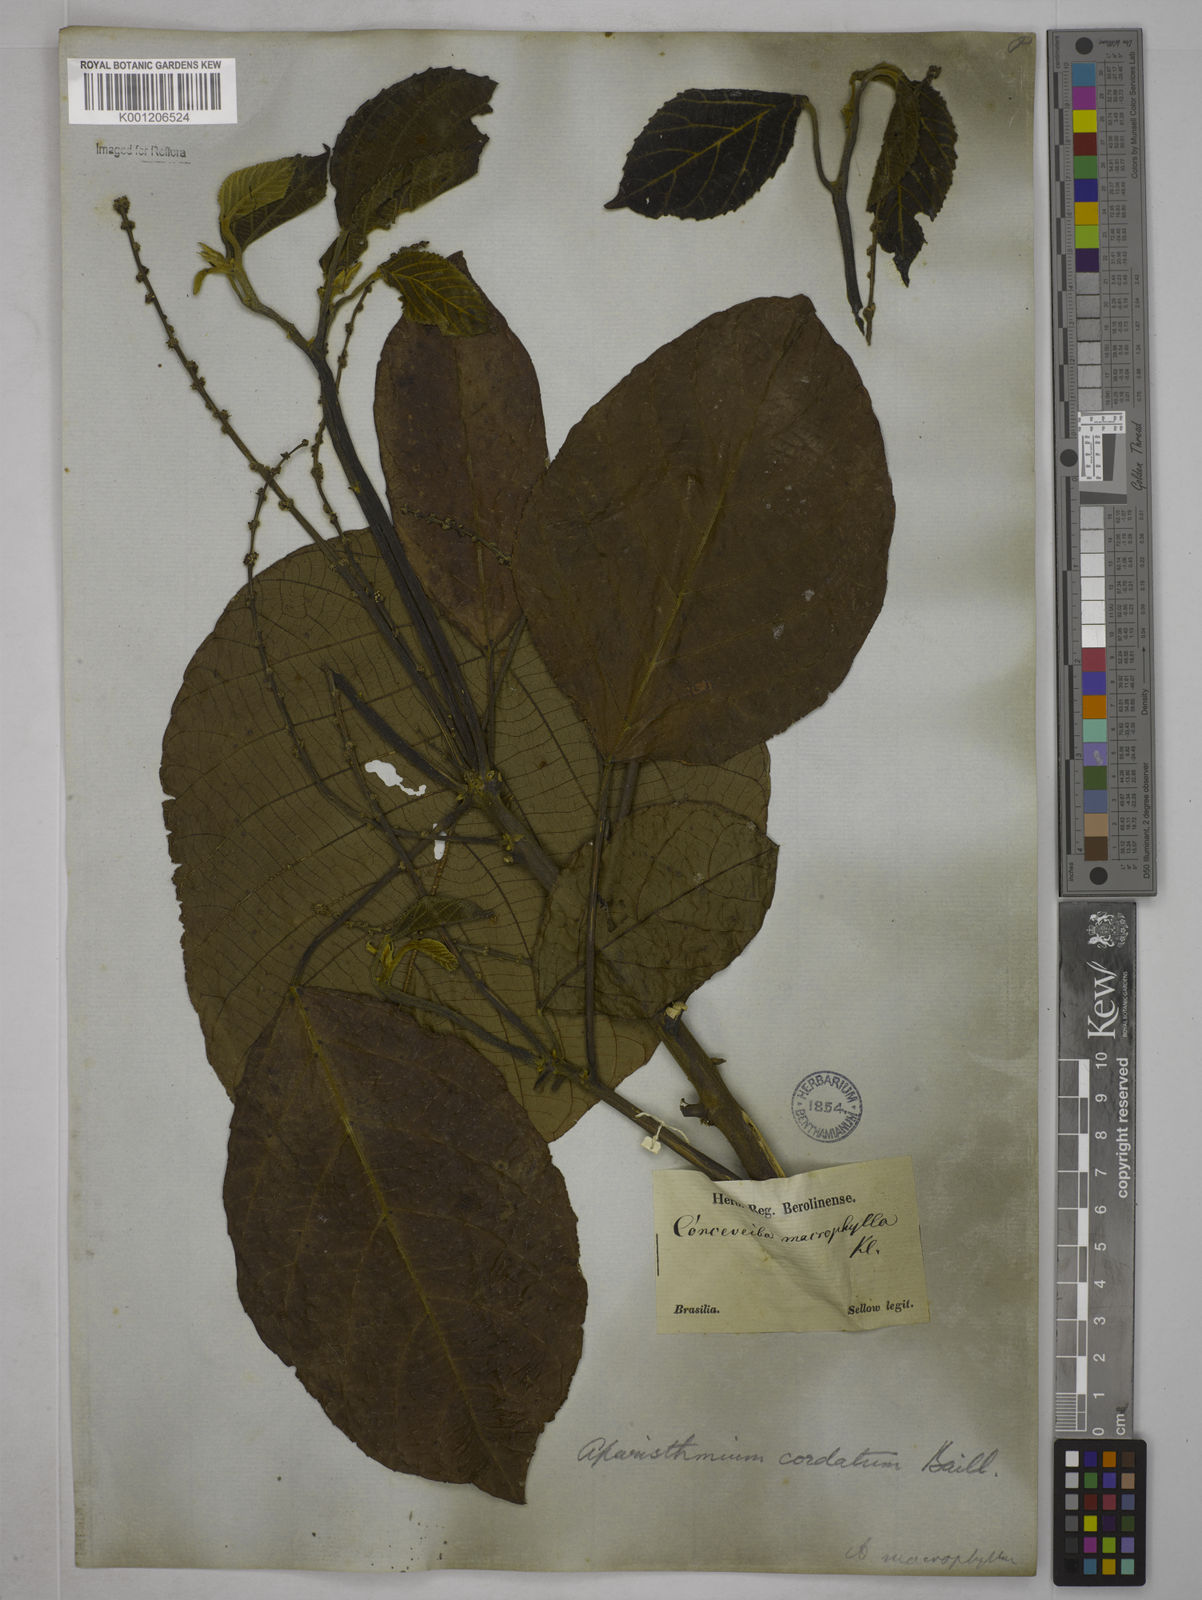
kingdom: Plantae
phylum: Tracheophyta
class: Magnoliopsida
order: Malpighiales
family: Euphorbiaceae
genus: Aparisthmium
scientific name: Aparisthmium cordatum
